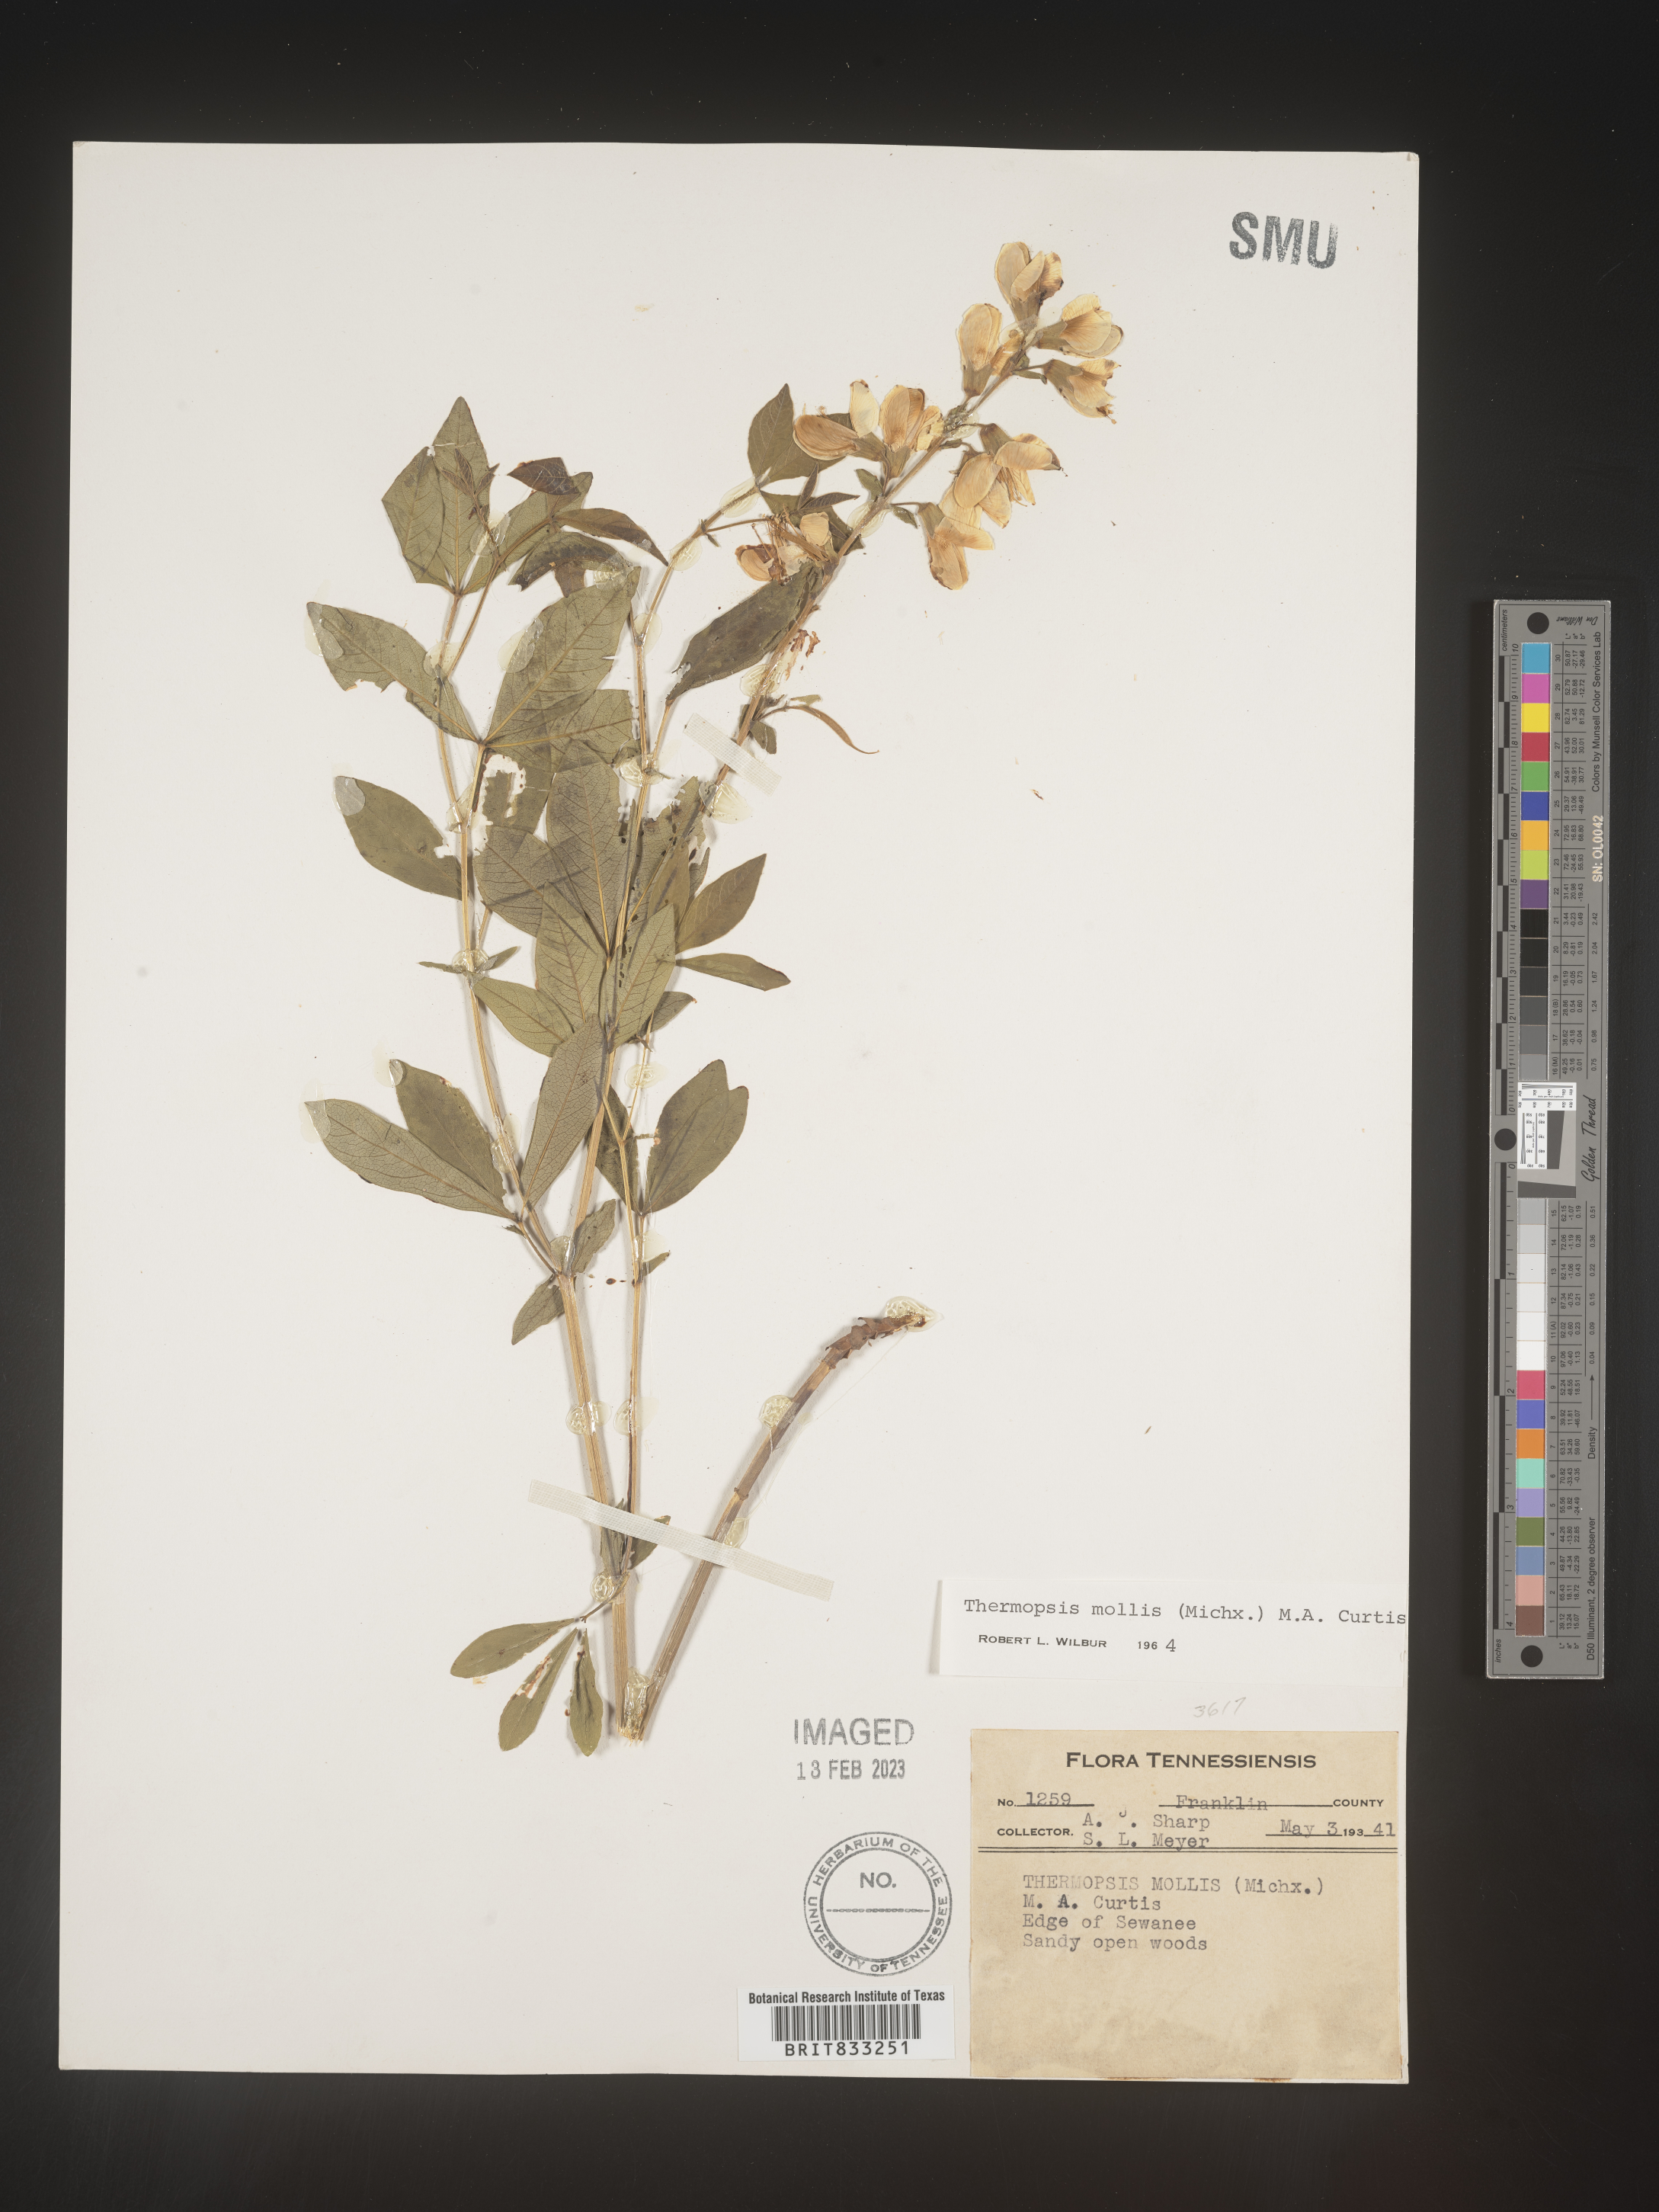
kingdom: Plantae
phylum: Tracheophyta
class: Magnoliopsida
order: Fabales
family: Fabaceae
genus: Thermopsis
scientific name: Thermopsis mollis
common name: Allegheny mountain goldenbanner
